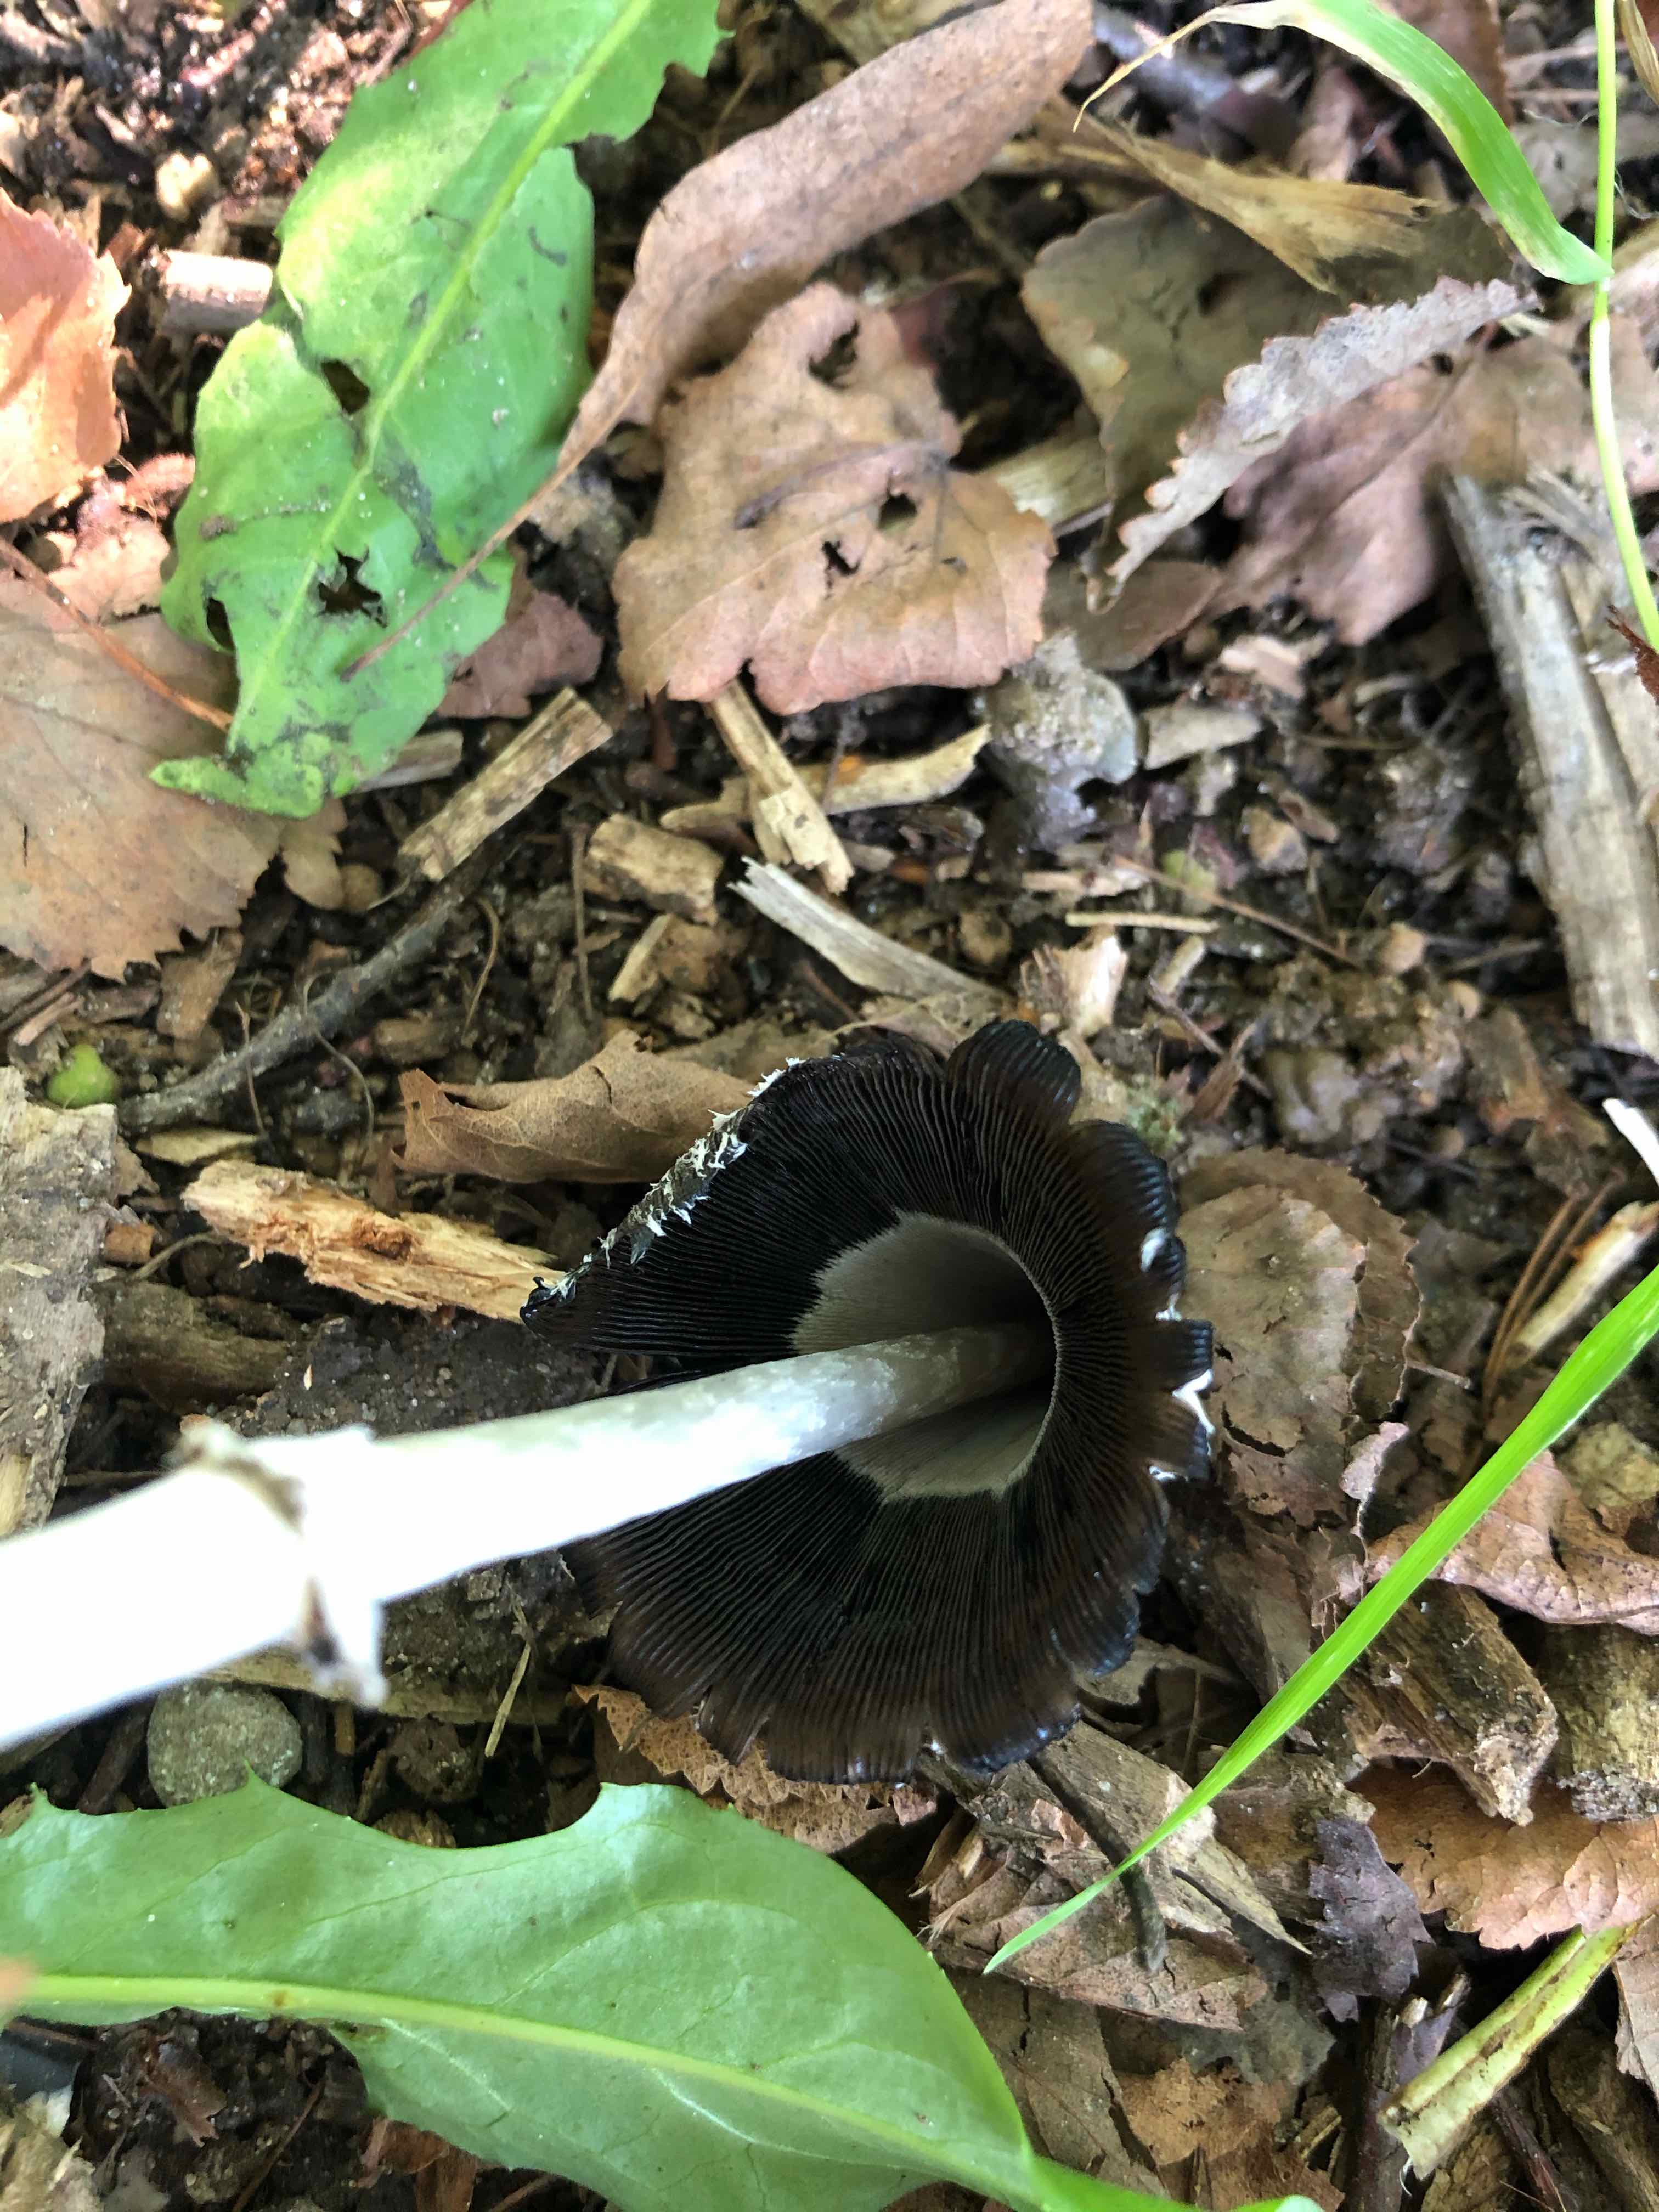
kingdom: Fungi
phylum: Basidiomycota
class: Agaricomycetes
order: Agaricales
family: Agaricaceae
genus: Coprinus
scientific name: Coprinus comatus
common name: stor parykhat
